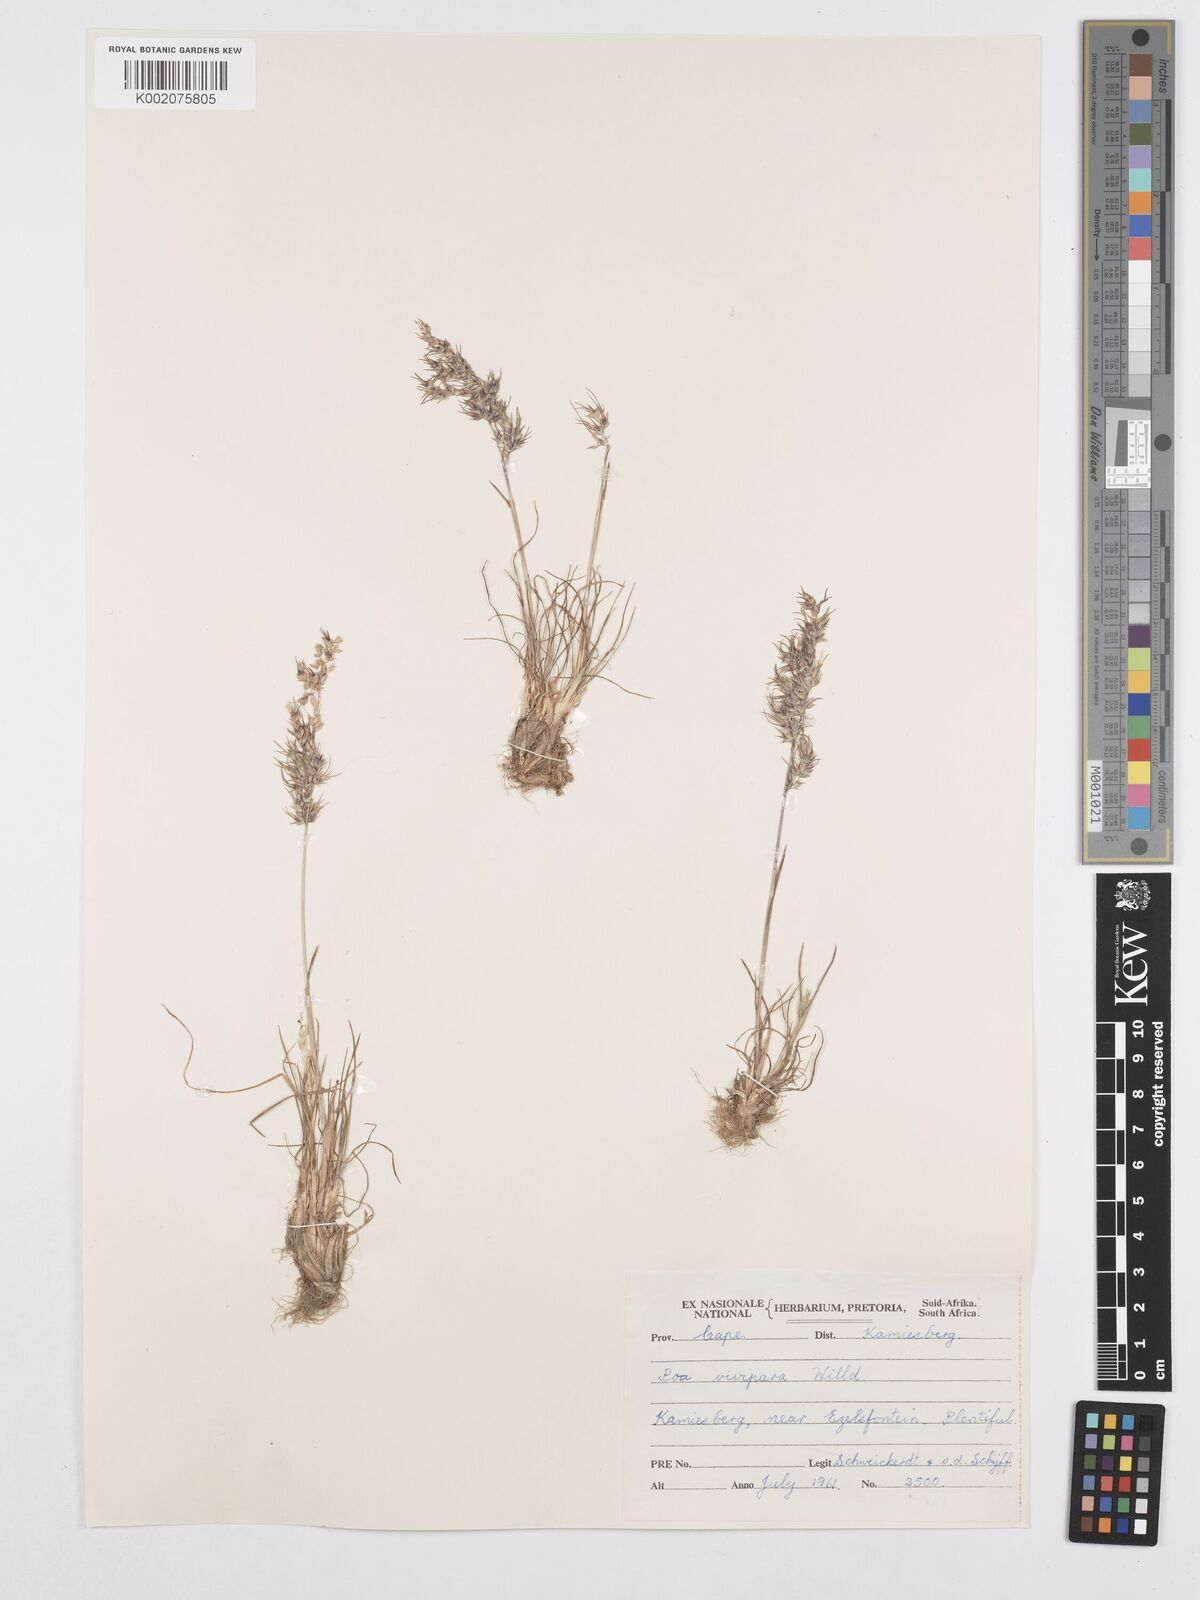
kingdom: Plantae
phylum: Tracheophyta
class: Liliopsida
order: Poales
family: Poaceae
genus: Poa
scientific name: Poa bulbosa
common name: Bulbous bluegrass
